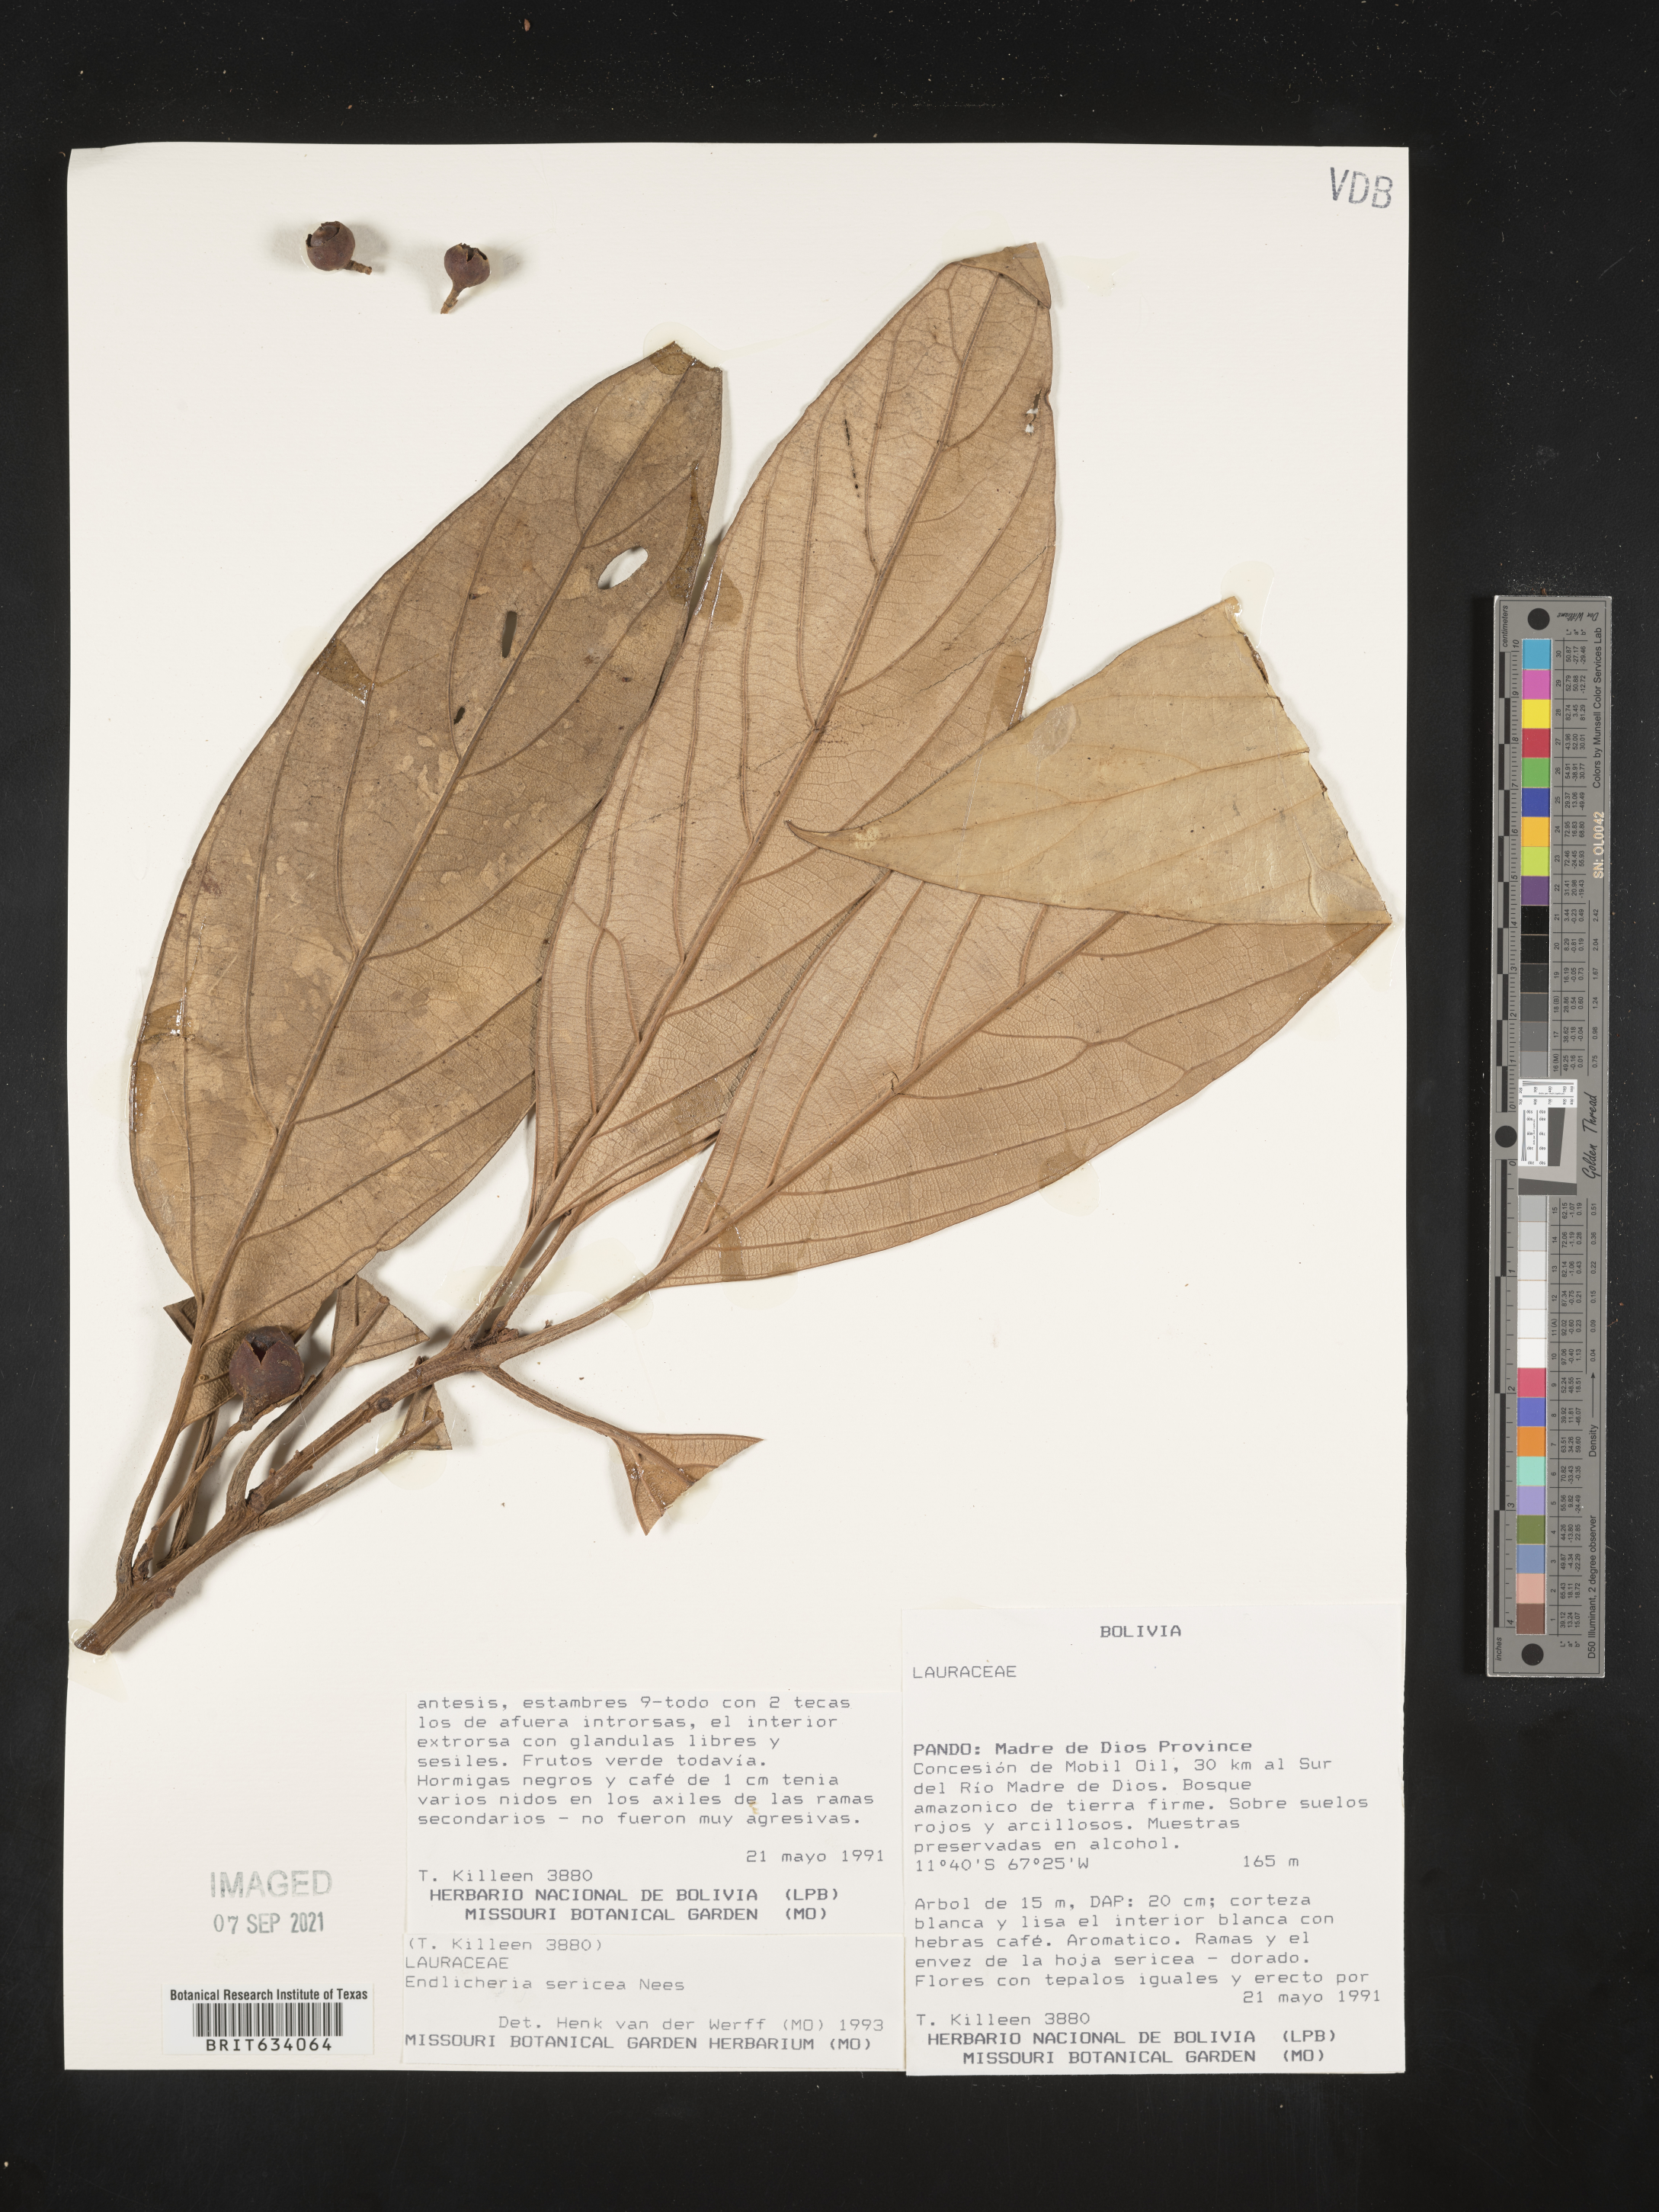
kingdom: Plantae
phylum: Tracheophyta
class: Magnoliopsida
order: Laurales
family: Lauraceae
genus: Endlicheria
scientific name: Endlicheria
